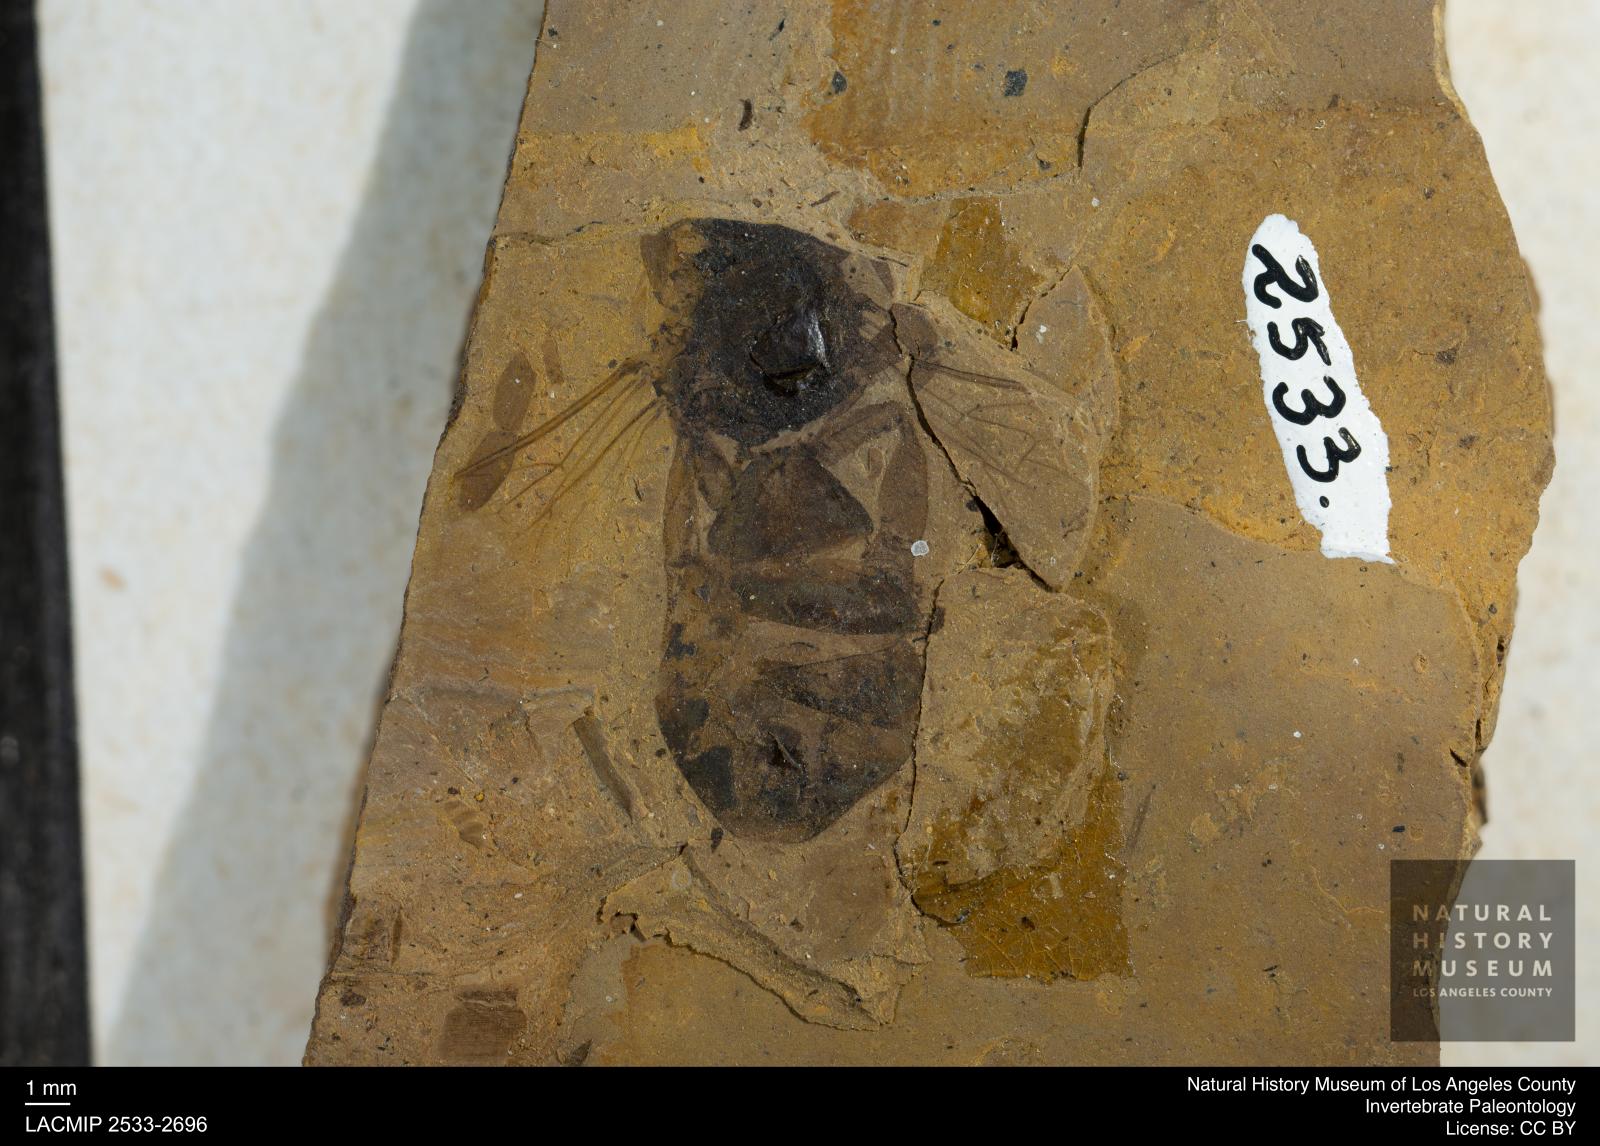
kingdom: Animalia
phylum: Arthropoda
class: Insecta
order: Hymenoptera
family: Apidae
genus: Apis
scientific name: Apis henshawi
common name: Henshaw's honey bee
